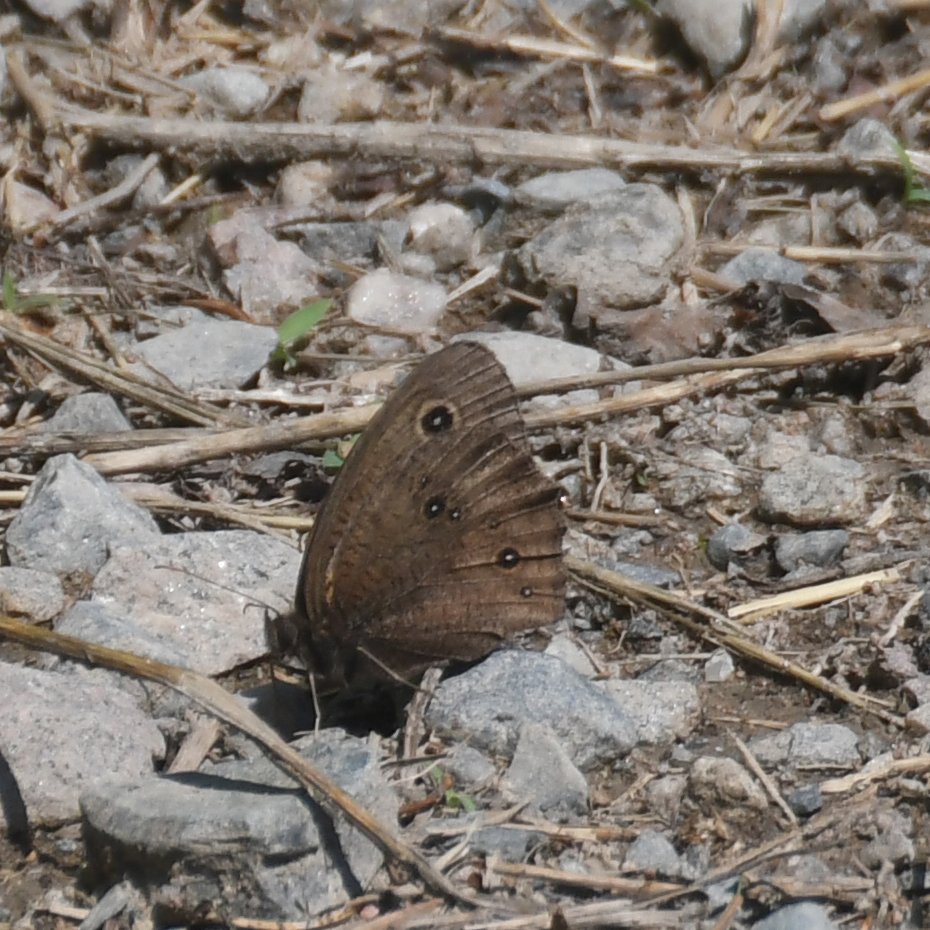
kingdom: Animalia
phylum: Arthropoda
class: Insecta
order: Lepidoptera
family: Nymphalidae
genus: Cercyonis
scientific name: Cercyonis pegala
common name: Common Wood-Nymph
